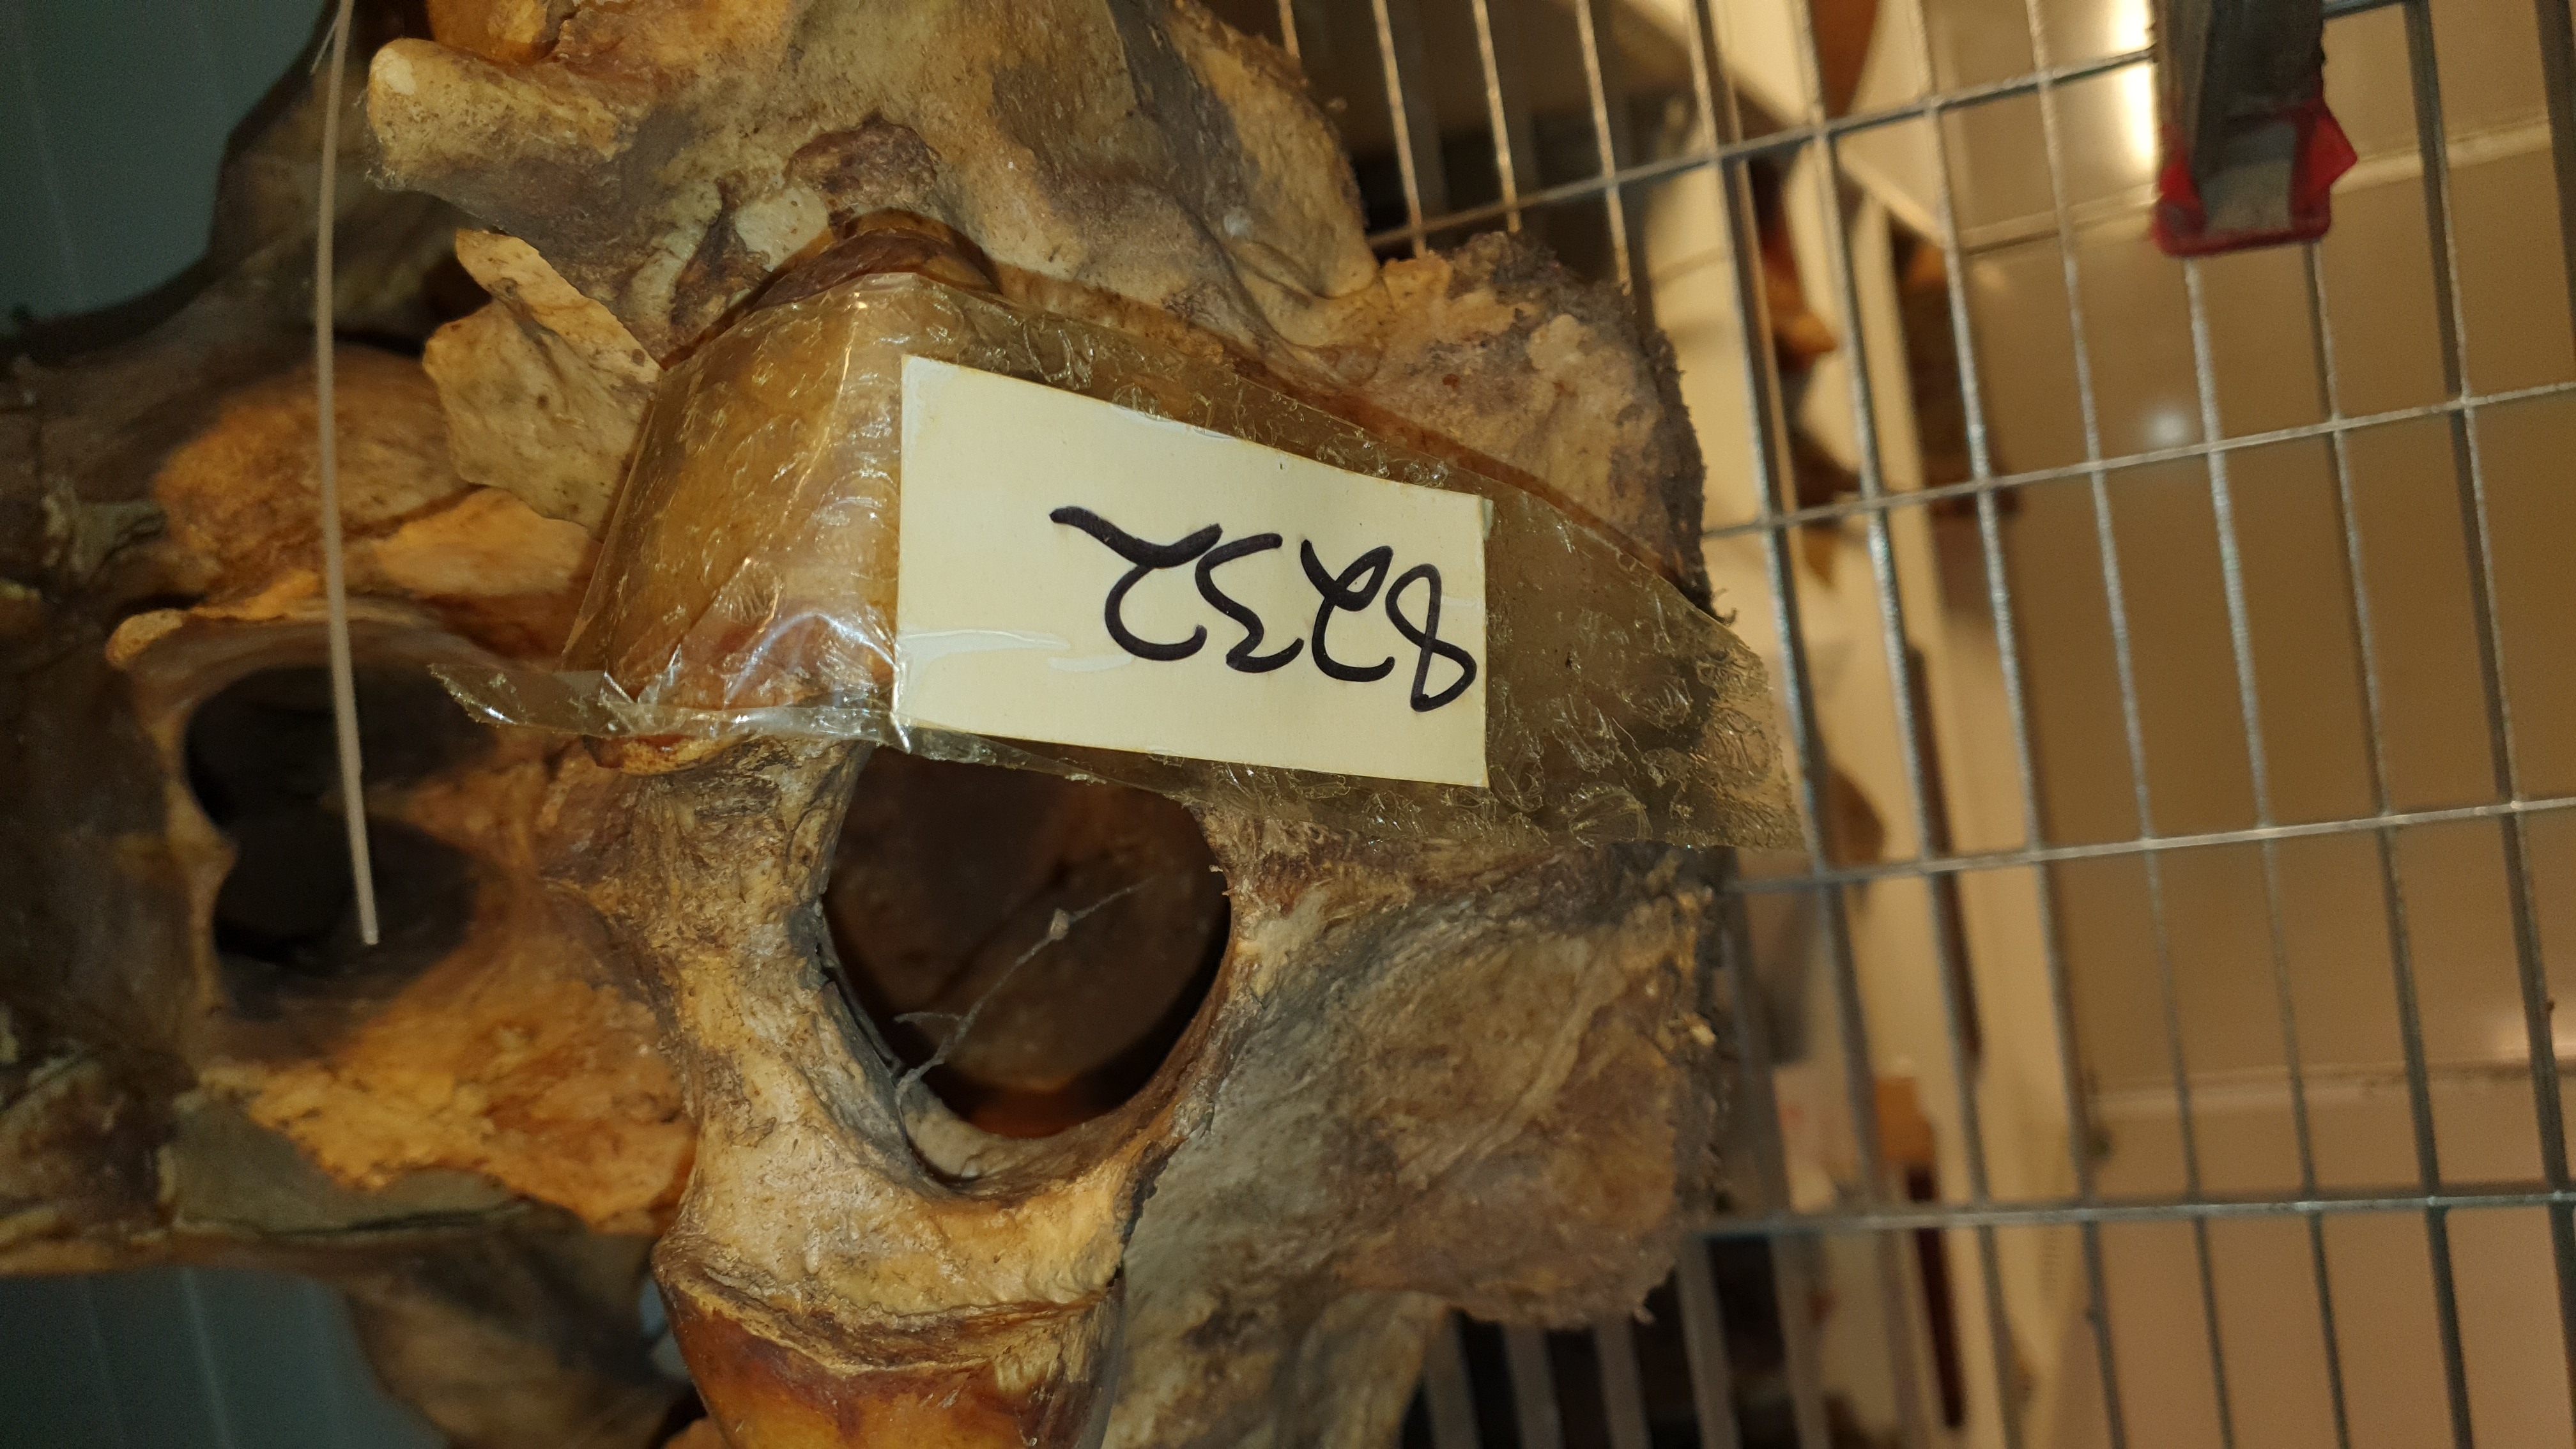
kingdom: Animalia
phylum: Chordata
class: Mammalia
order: Artiodactyla
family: Hippopotamidae
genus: Hippopotamus
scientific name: Hippopotamus amphibius
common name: Common hippopotamus
